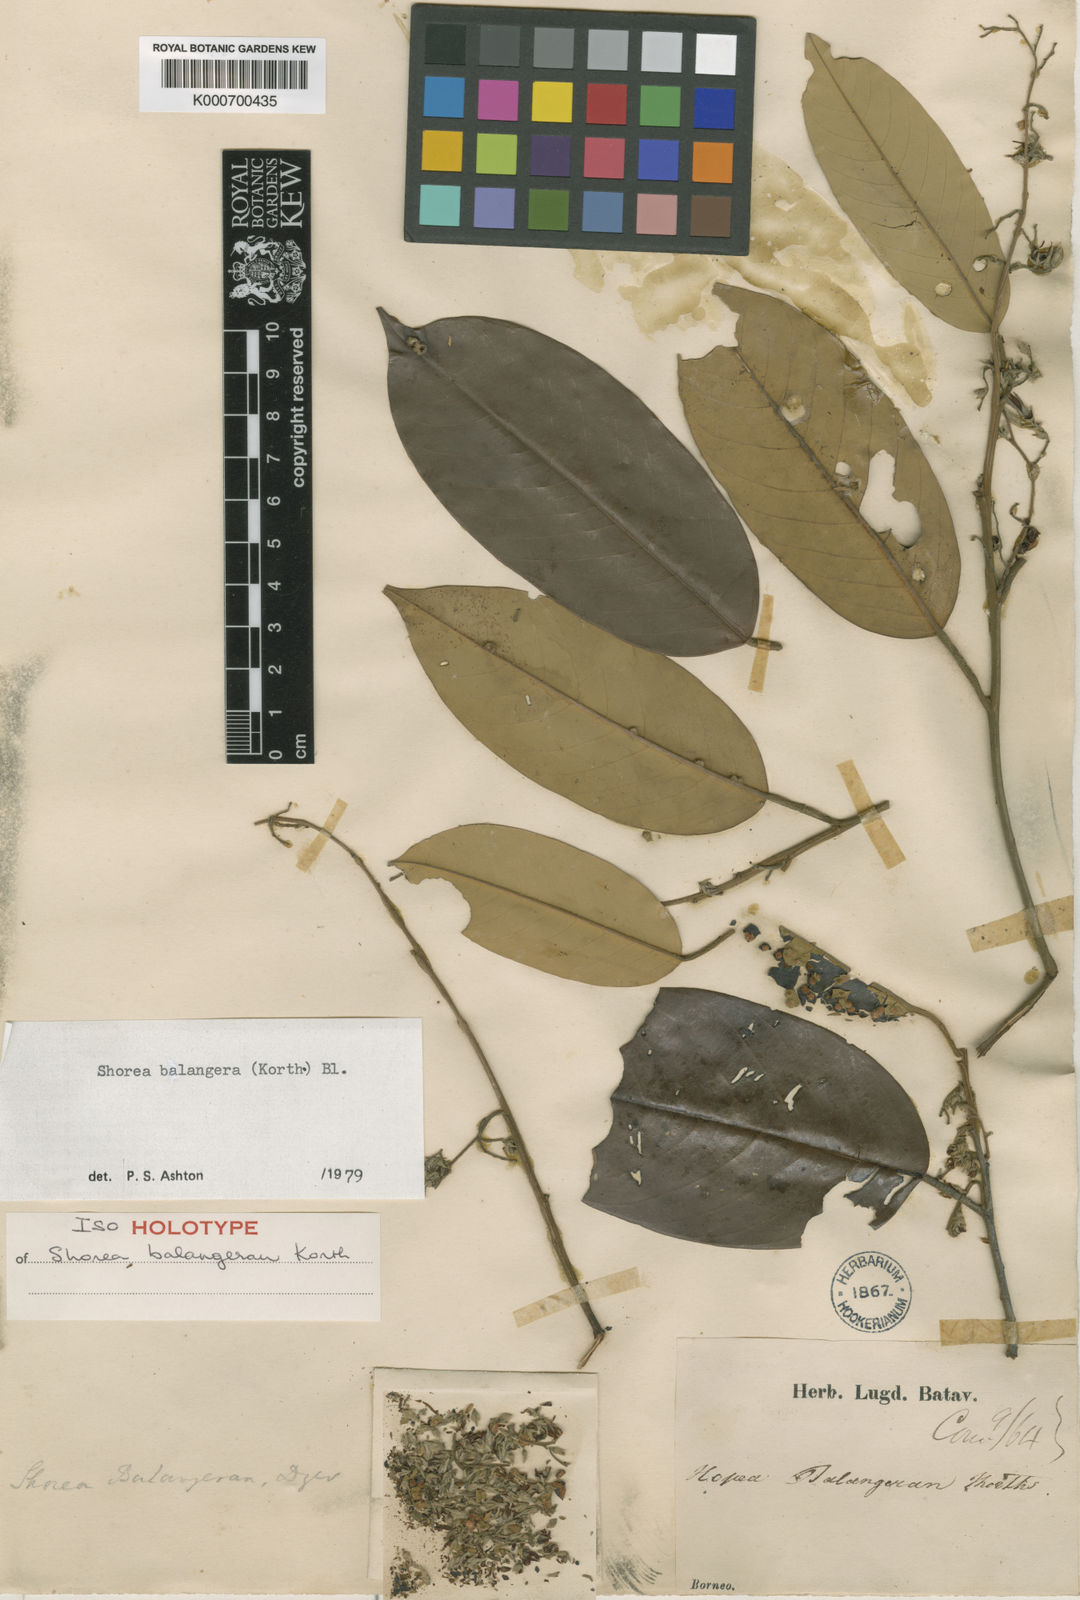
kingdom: Plantae
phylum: Tracheophyta
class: Magnoliopsida
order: Malvales
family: Dipterocarpaceae
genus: Shorea
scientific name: Shorea
